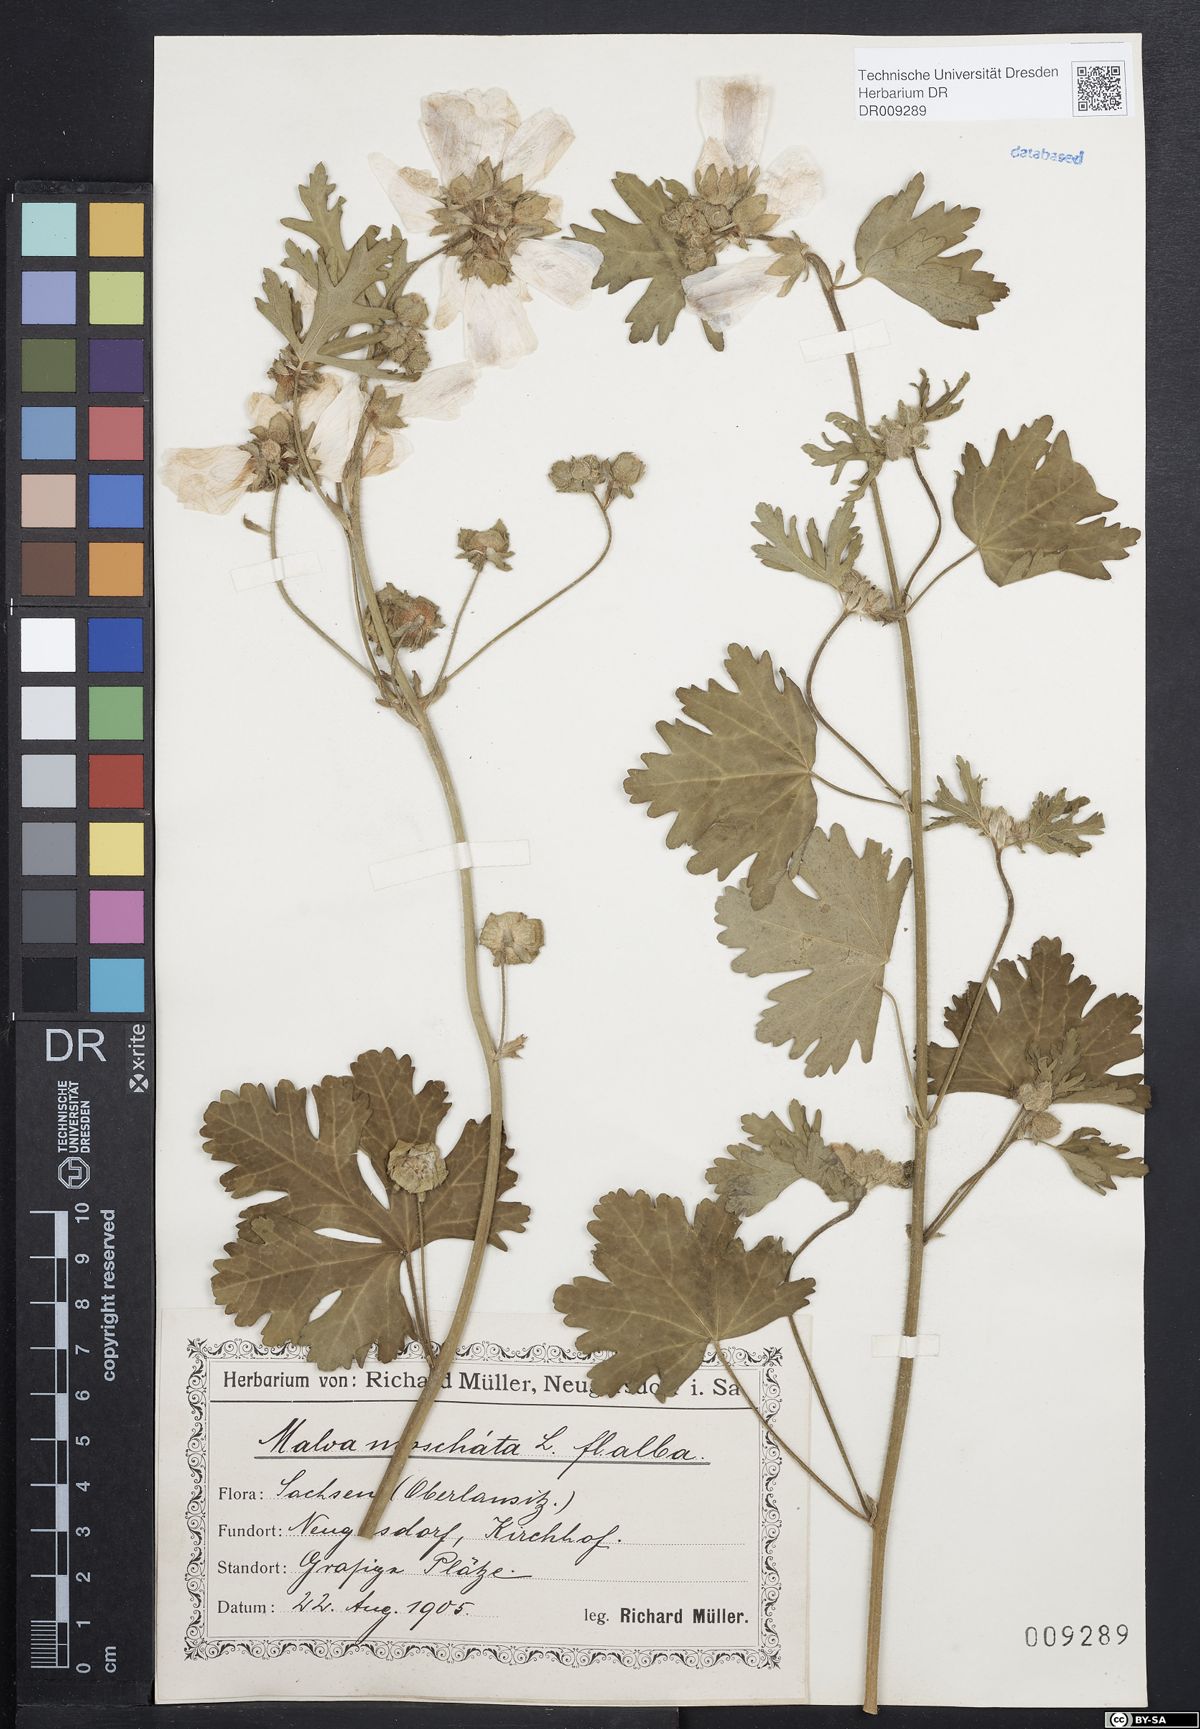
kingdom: Plantae
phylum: Tracheophyta
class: Magnoliopsida
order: Malvales
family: Malvaceae
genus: Malva
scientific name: Malva moschata
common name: Musk mallow
